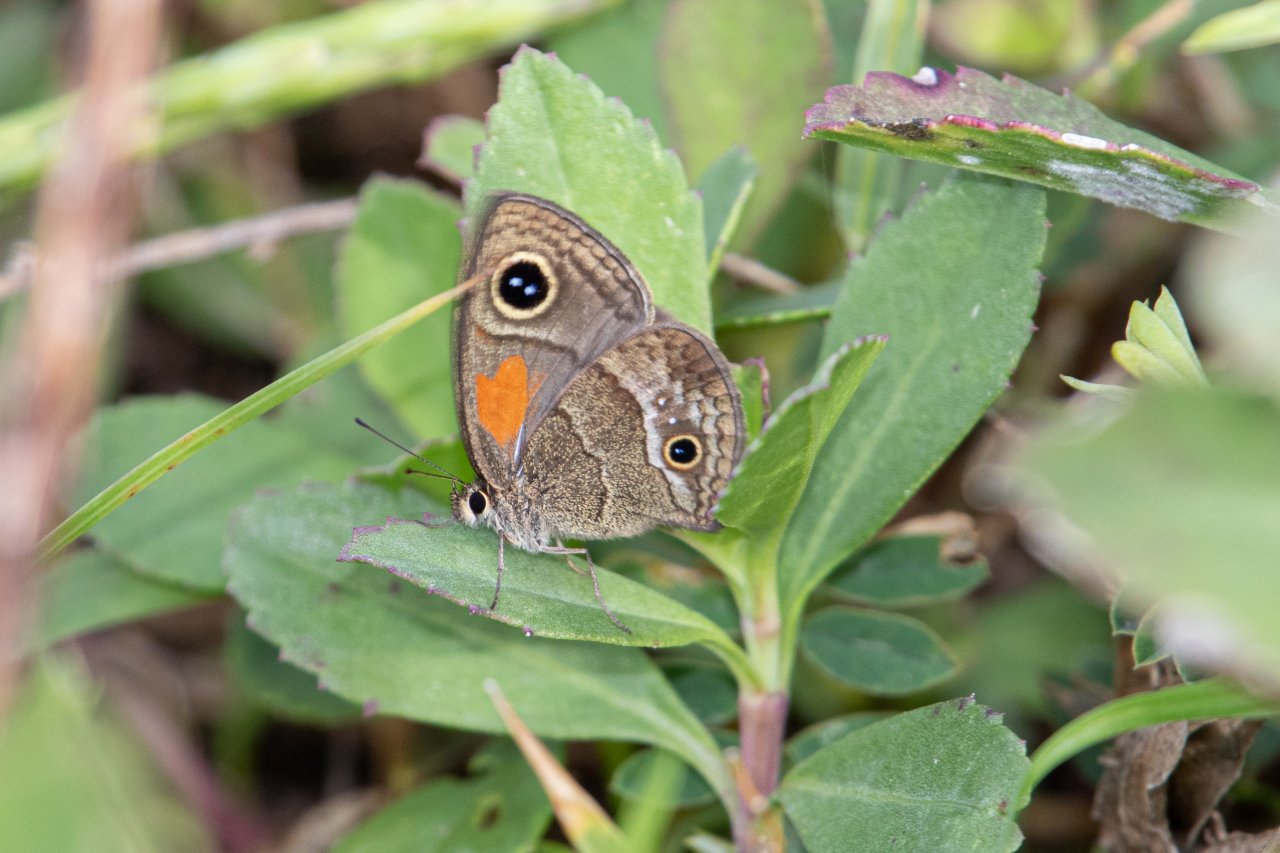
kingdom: Animalia
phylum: Arthropoda
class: Insecta
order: Lepidoptera
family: Nymphalidae
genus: Calisto
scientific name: Calisto obscura
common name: Obscure Calisto
